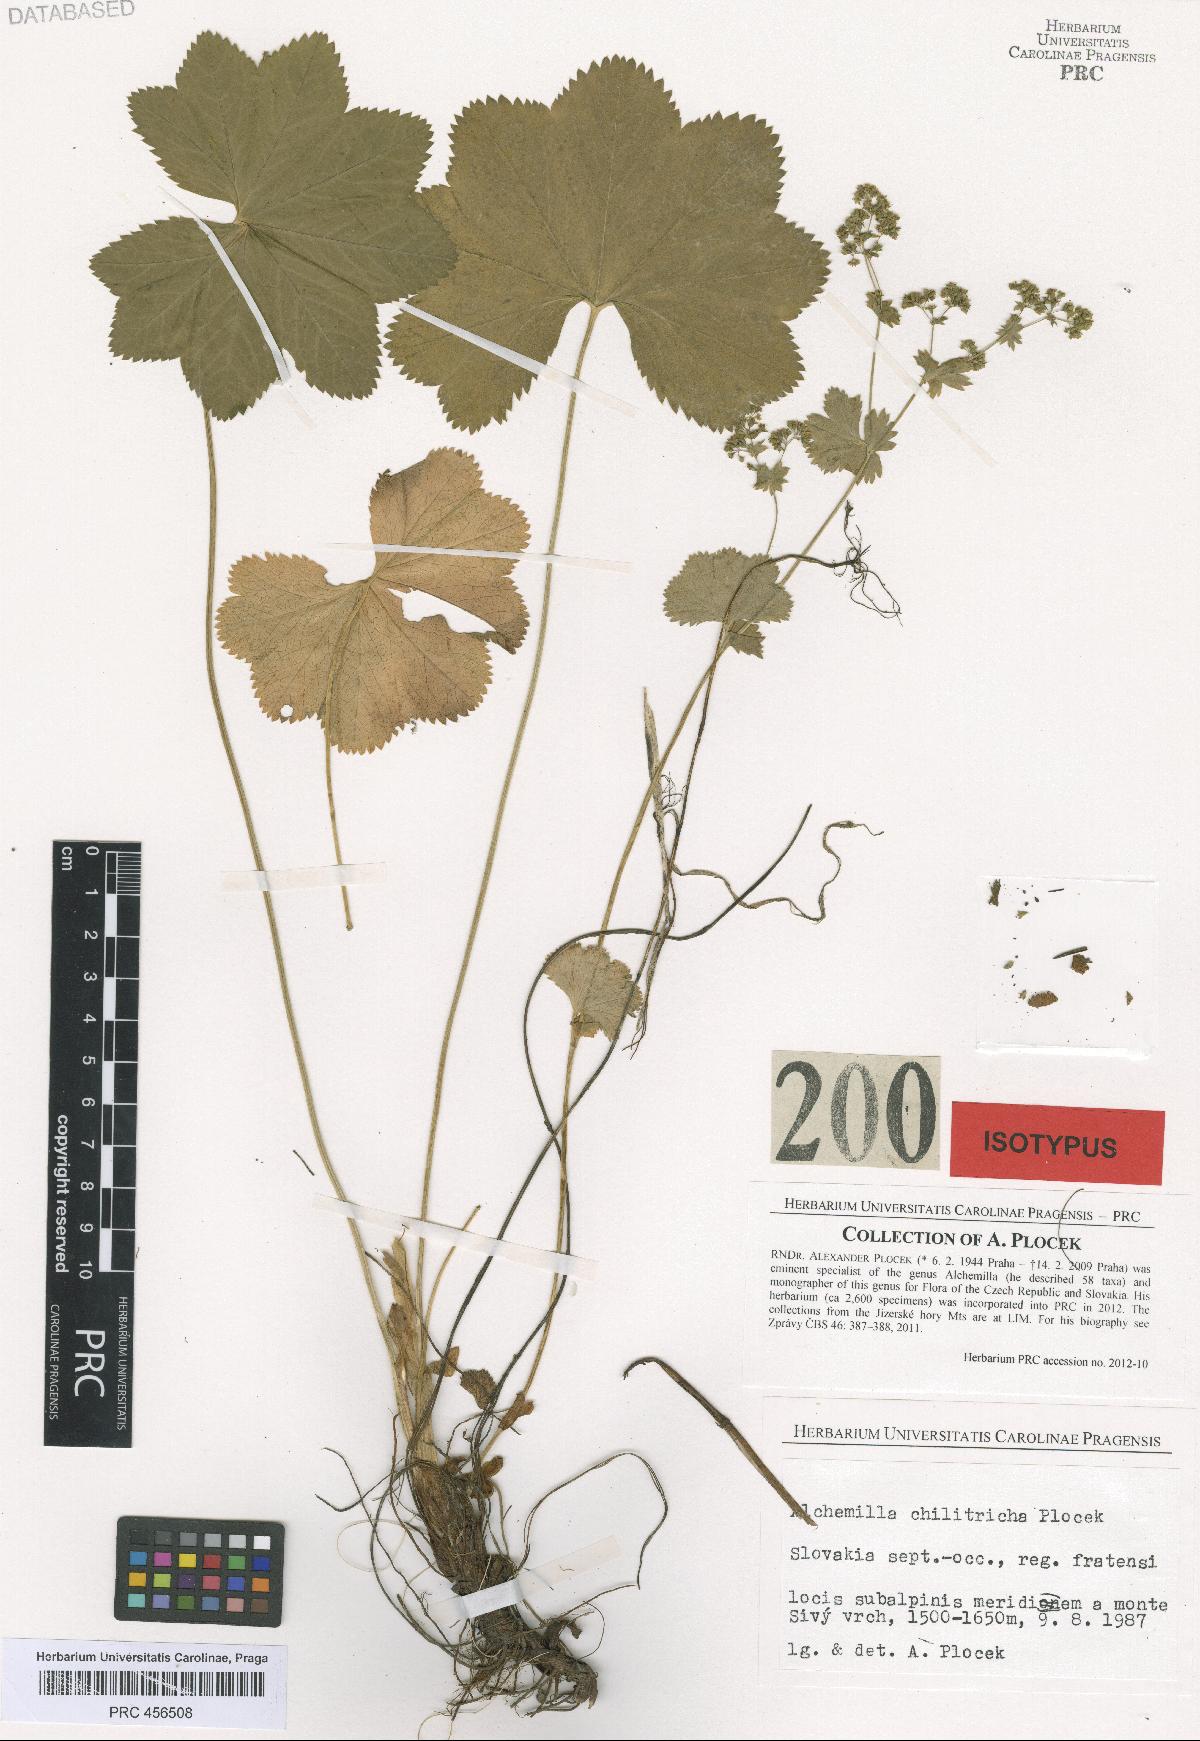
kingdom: Plantae
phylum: Tracheophyta
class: Magnoliopsida
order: Rosales
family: Rosaceae
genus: Alchemilla
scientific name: Alchemilla chilitricha
